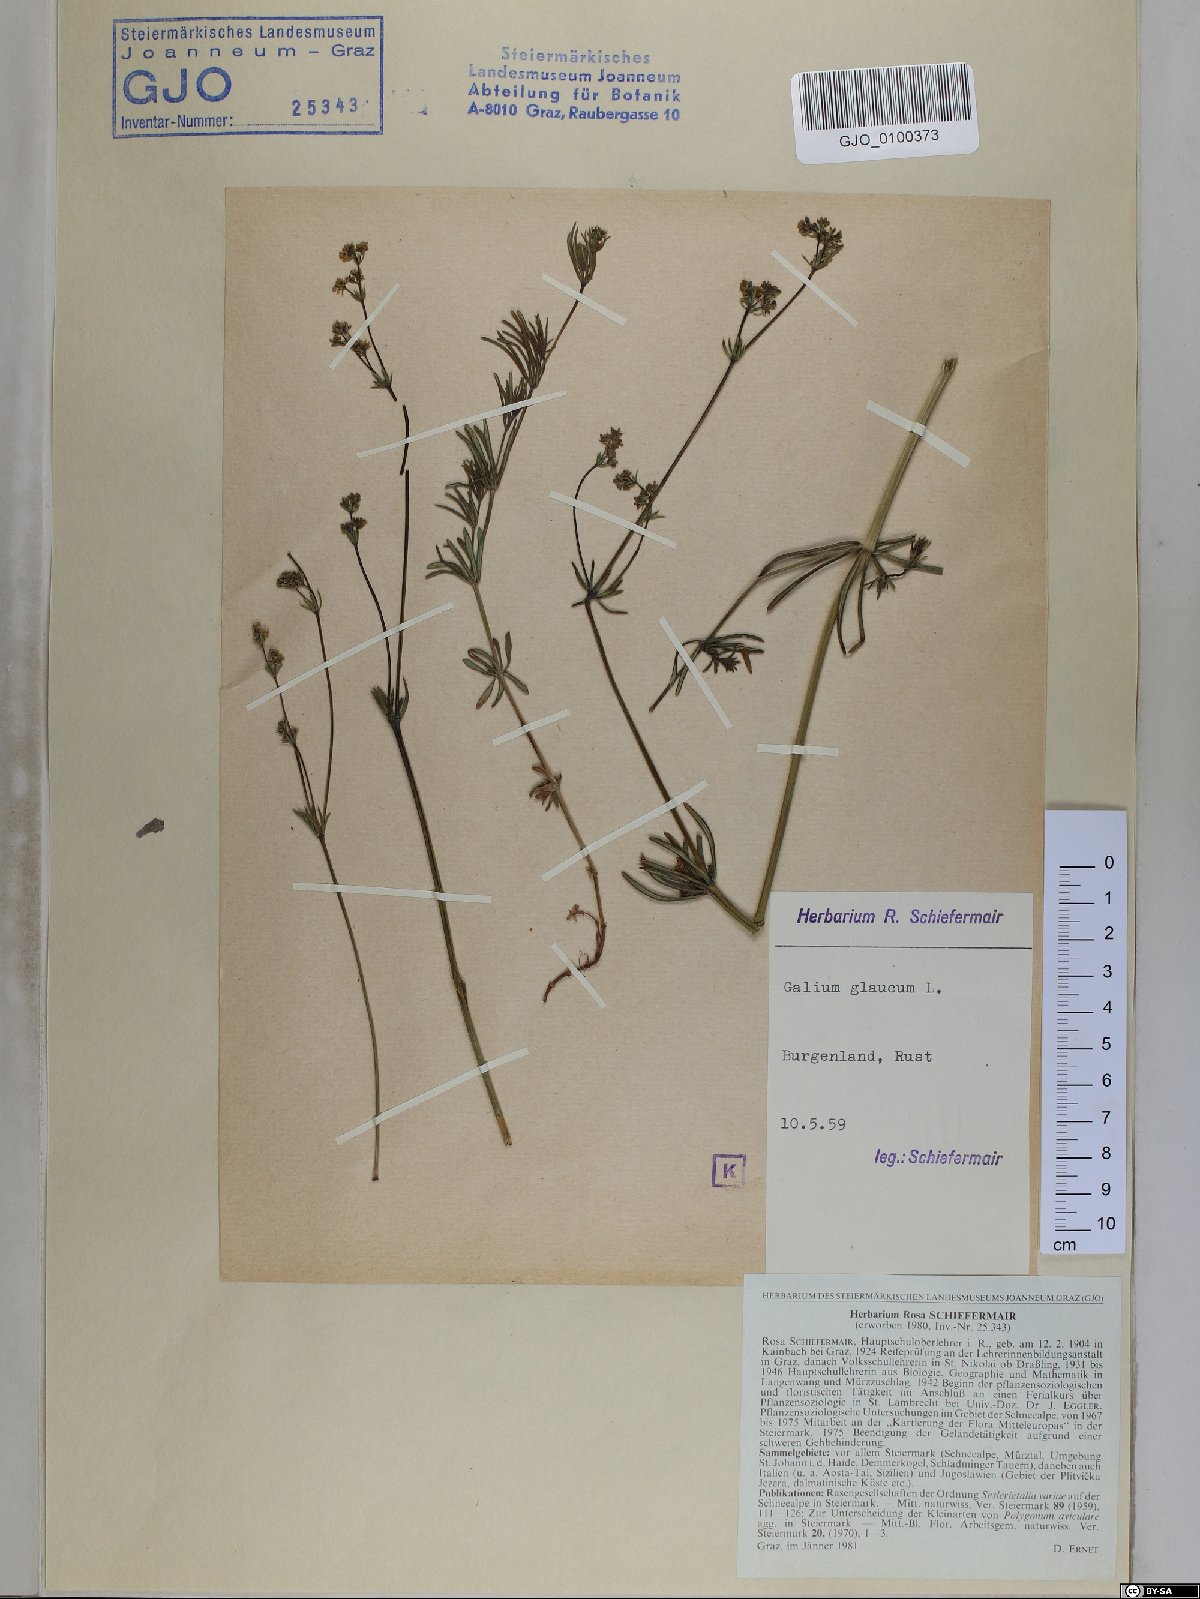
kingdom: Plantae
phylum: Tracheophyta
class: Magnoliopsida
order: Gentianales
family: Rubiaceae
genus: Galium
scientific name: Galium glaucum
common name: Waxy bedstraw
